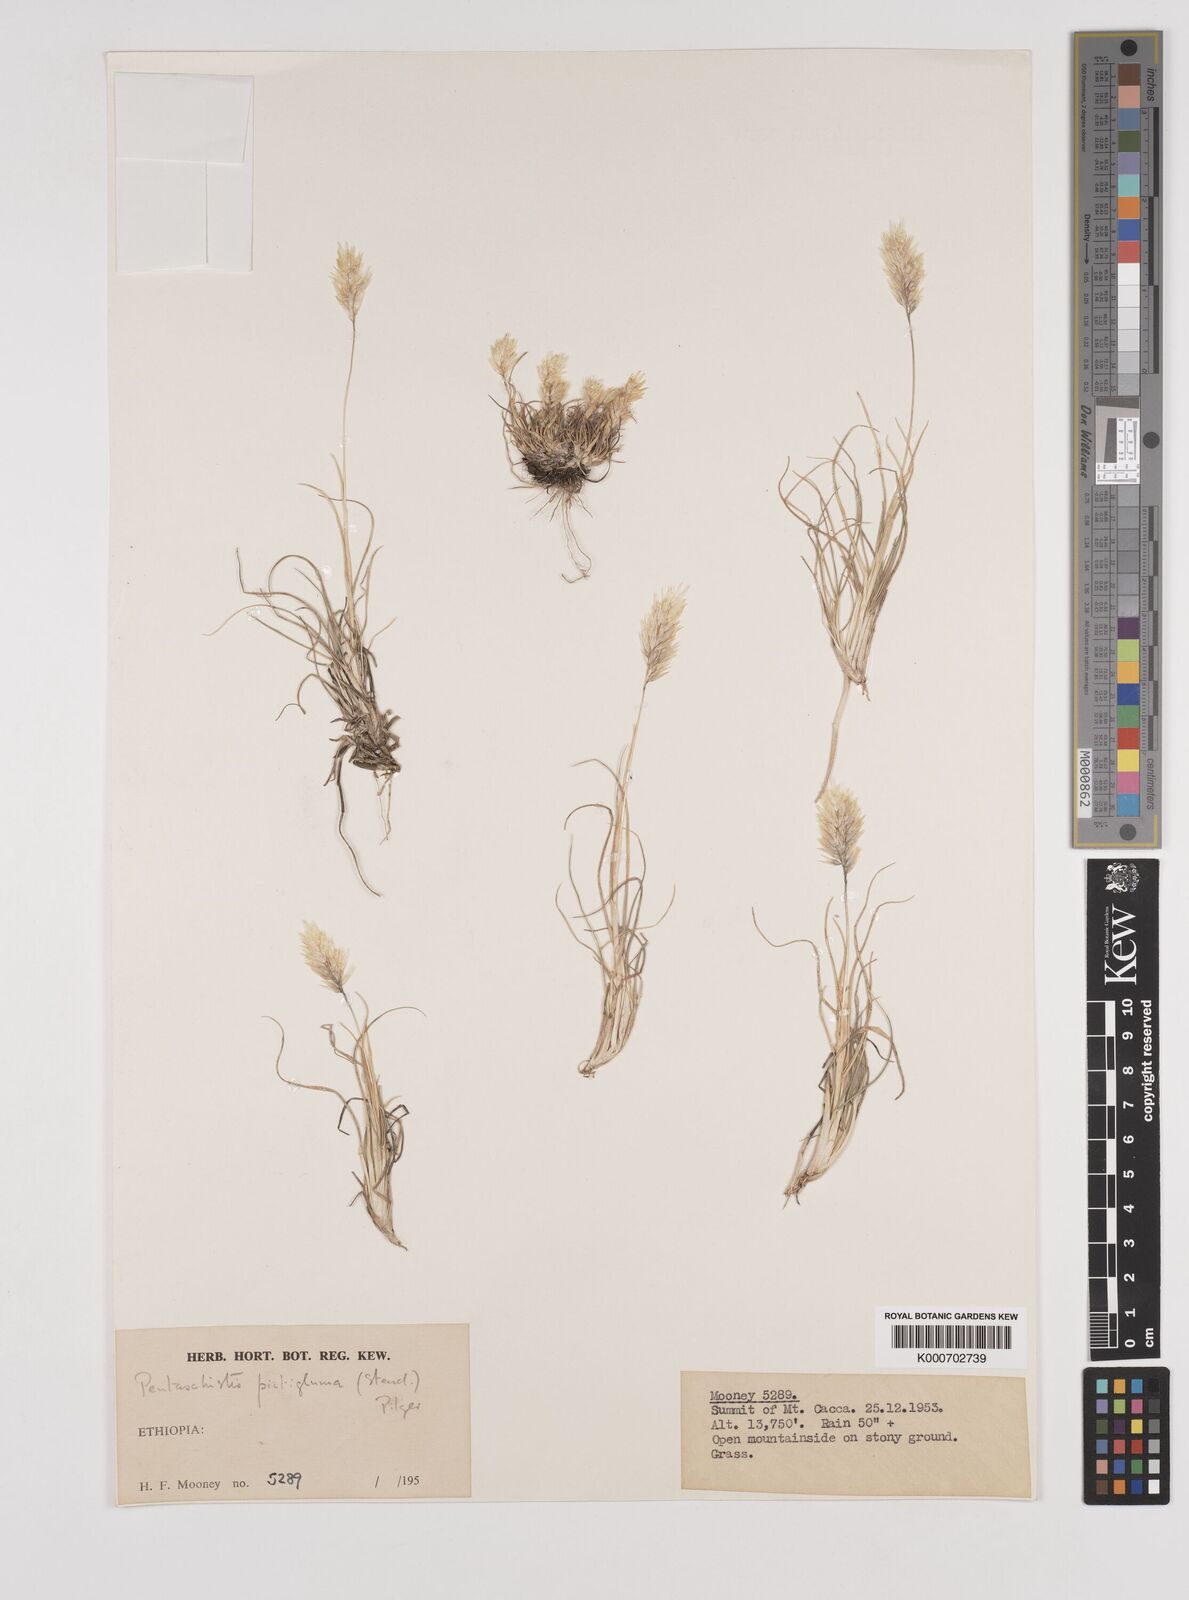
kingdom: Plantae
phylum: Tracheophyta
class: Liliopsida
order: Poales
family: Poaceae
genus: Pentameris
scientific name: Pentameris pictigluma
